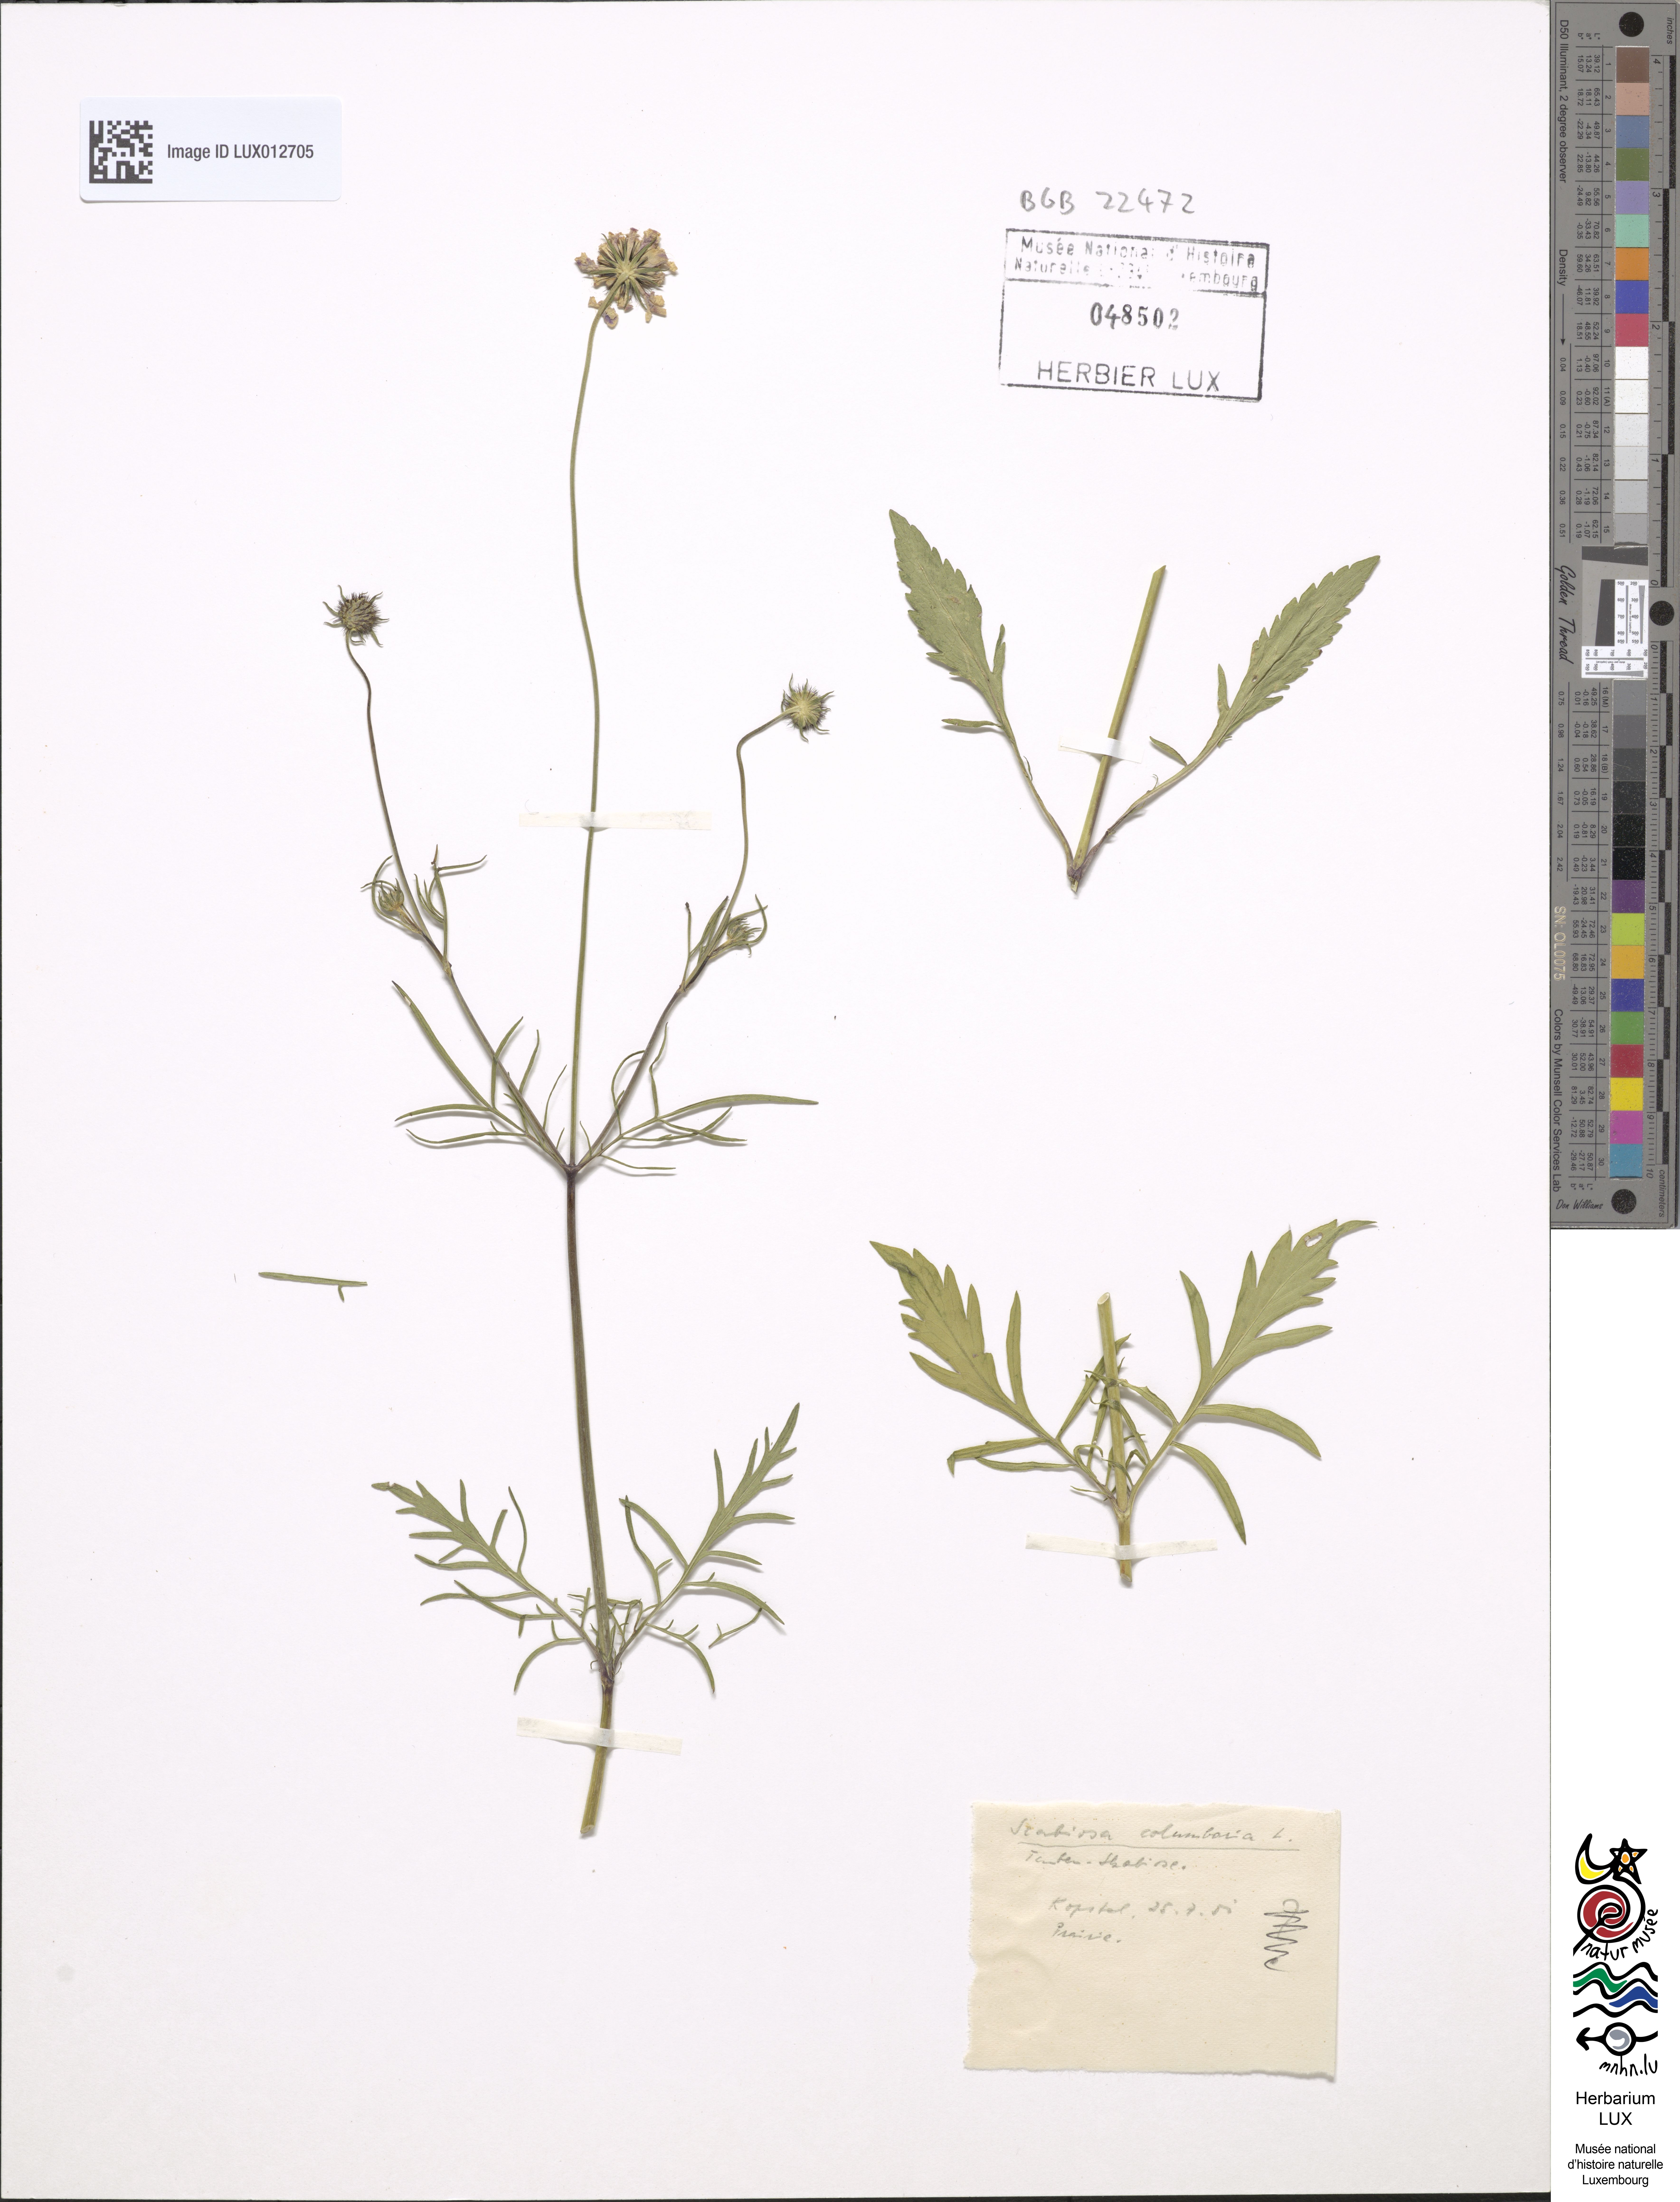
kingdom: Plantae
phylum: Tracheophyta
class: Magnoliopsida
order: Dipsacales
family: Caprifoliaceae
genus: Scabiosa
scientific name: Scabiosa columbaria
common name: Small scabious
